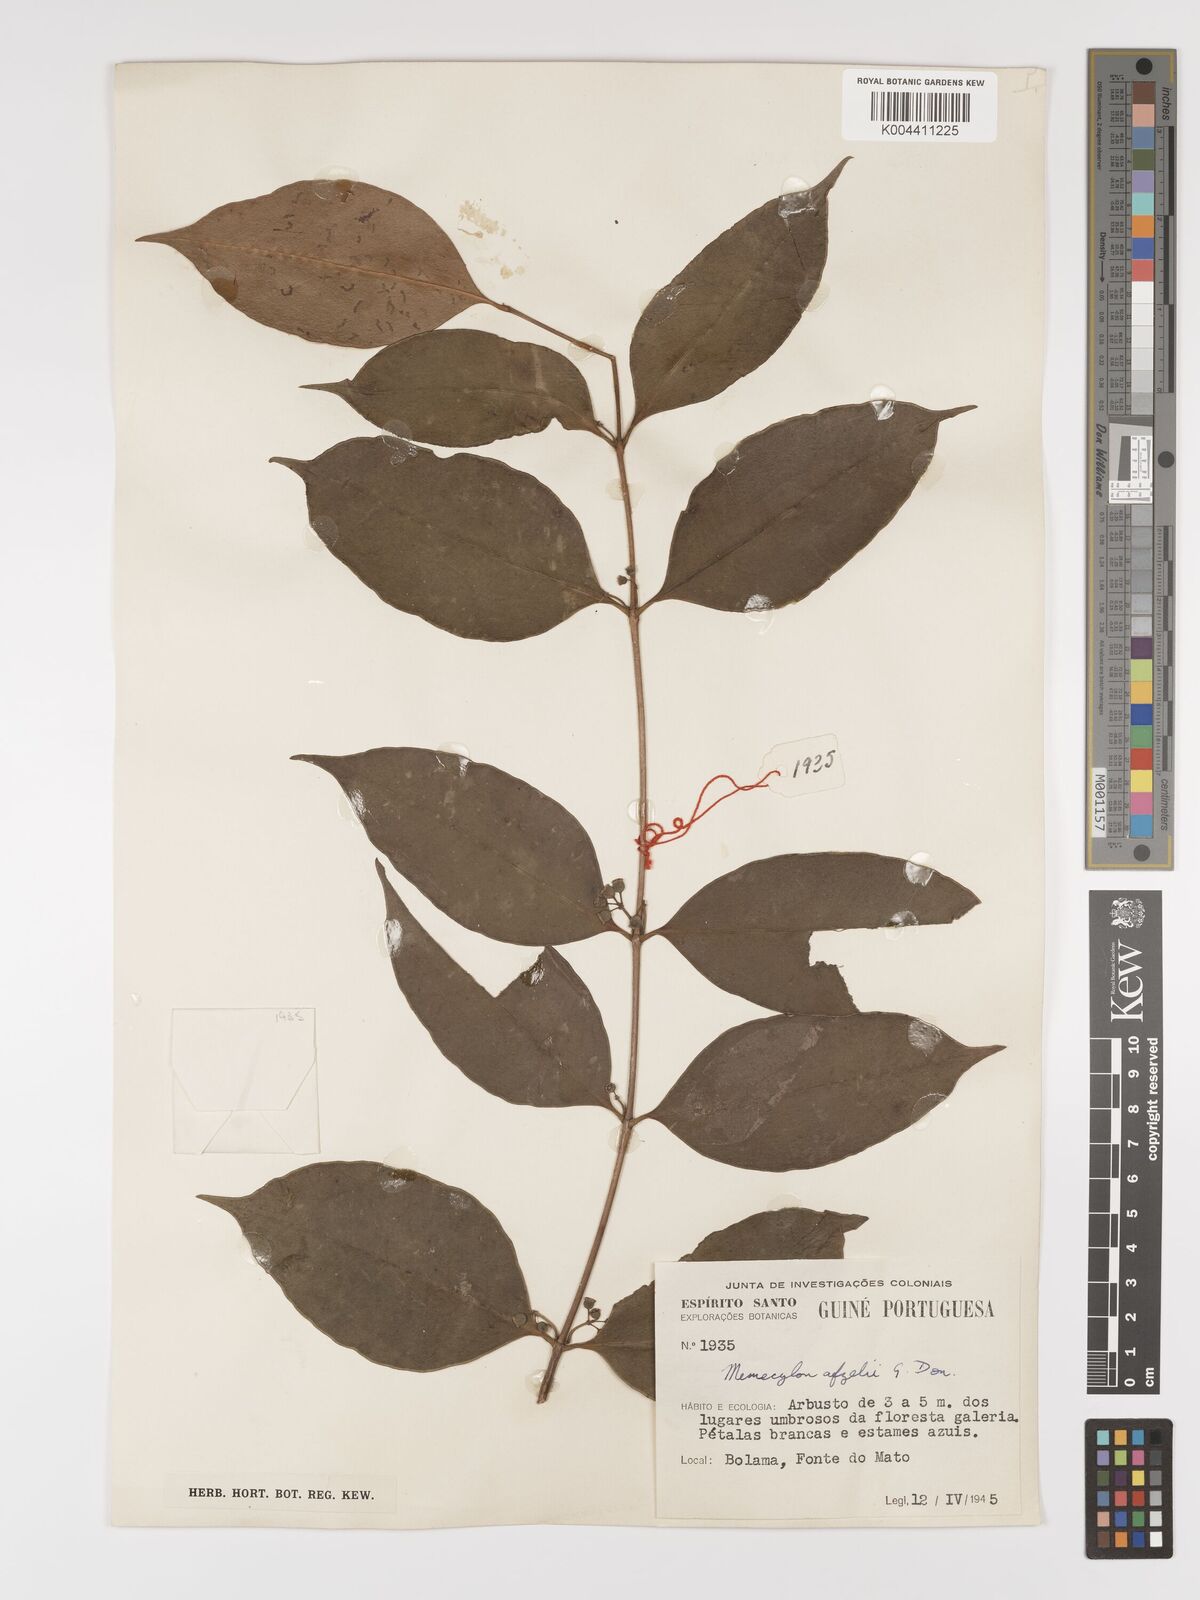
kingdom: Plantae
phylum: Tracheophyta
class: Magnoliopsida
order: Myrtales
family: Melastomataceae
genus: Memecylon
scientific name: Memecylon afzelii
